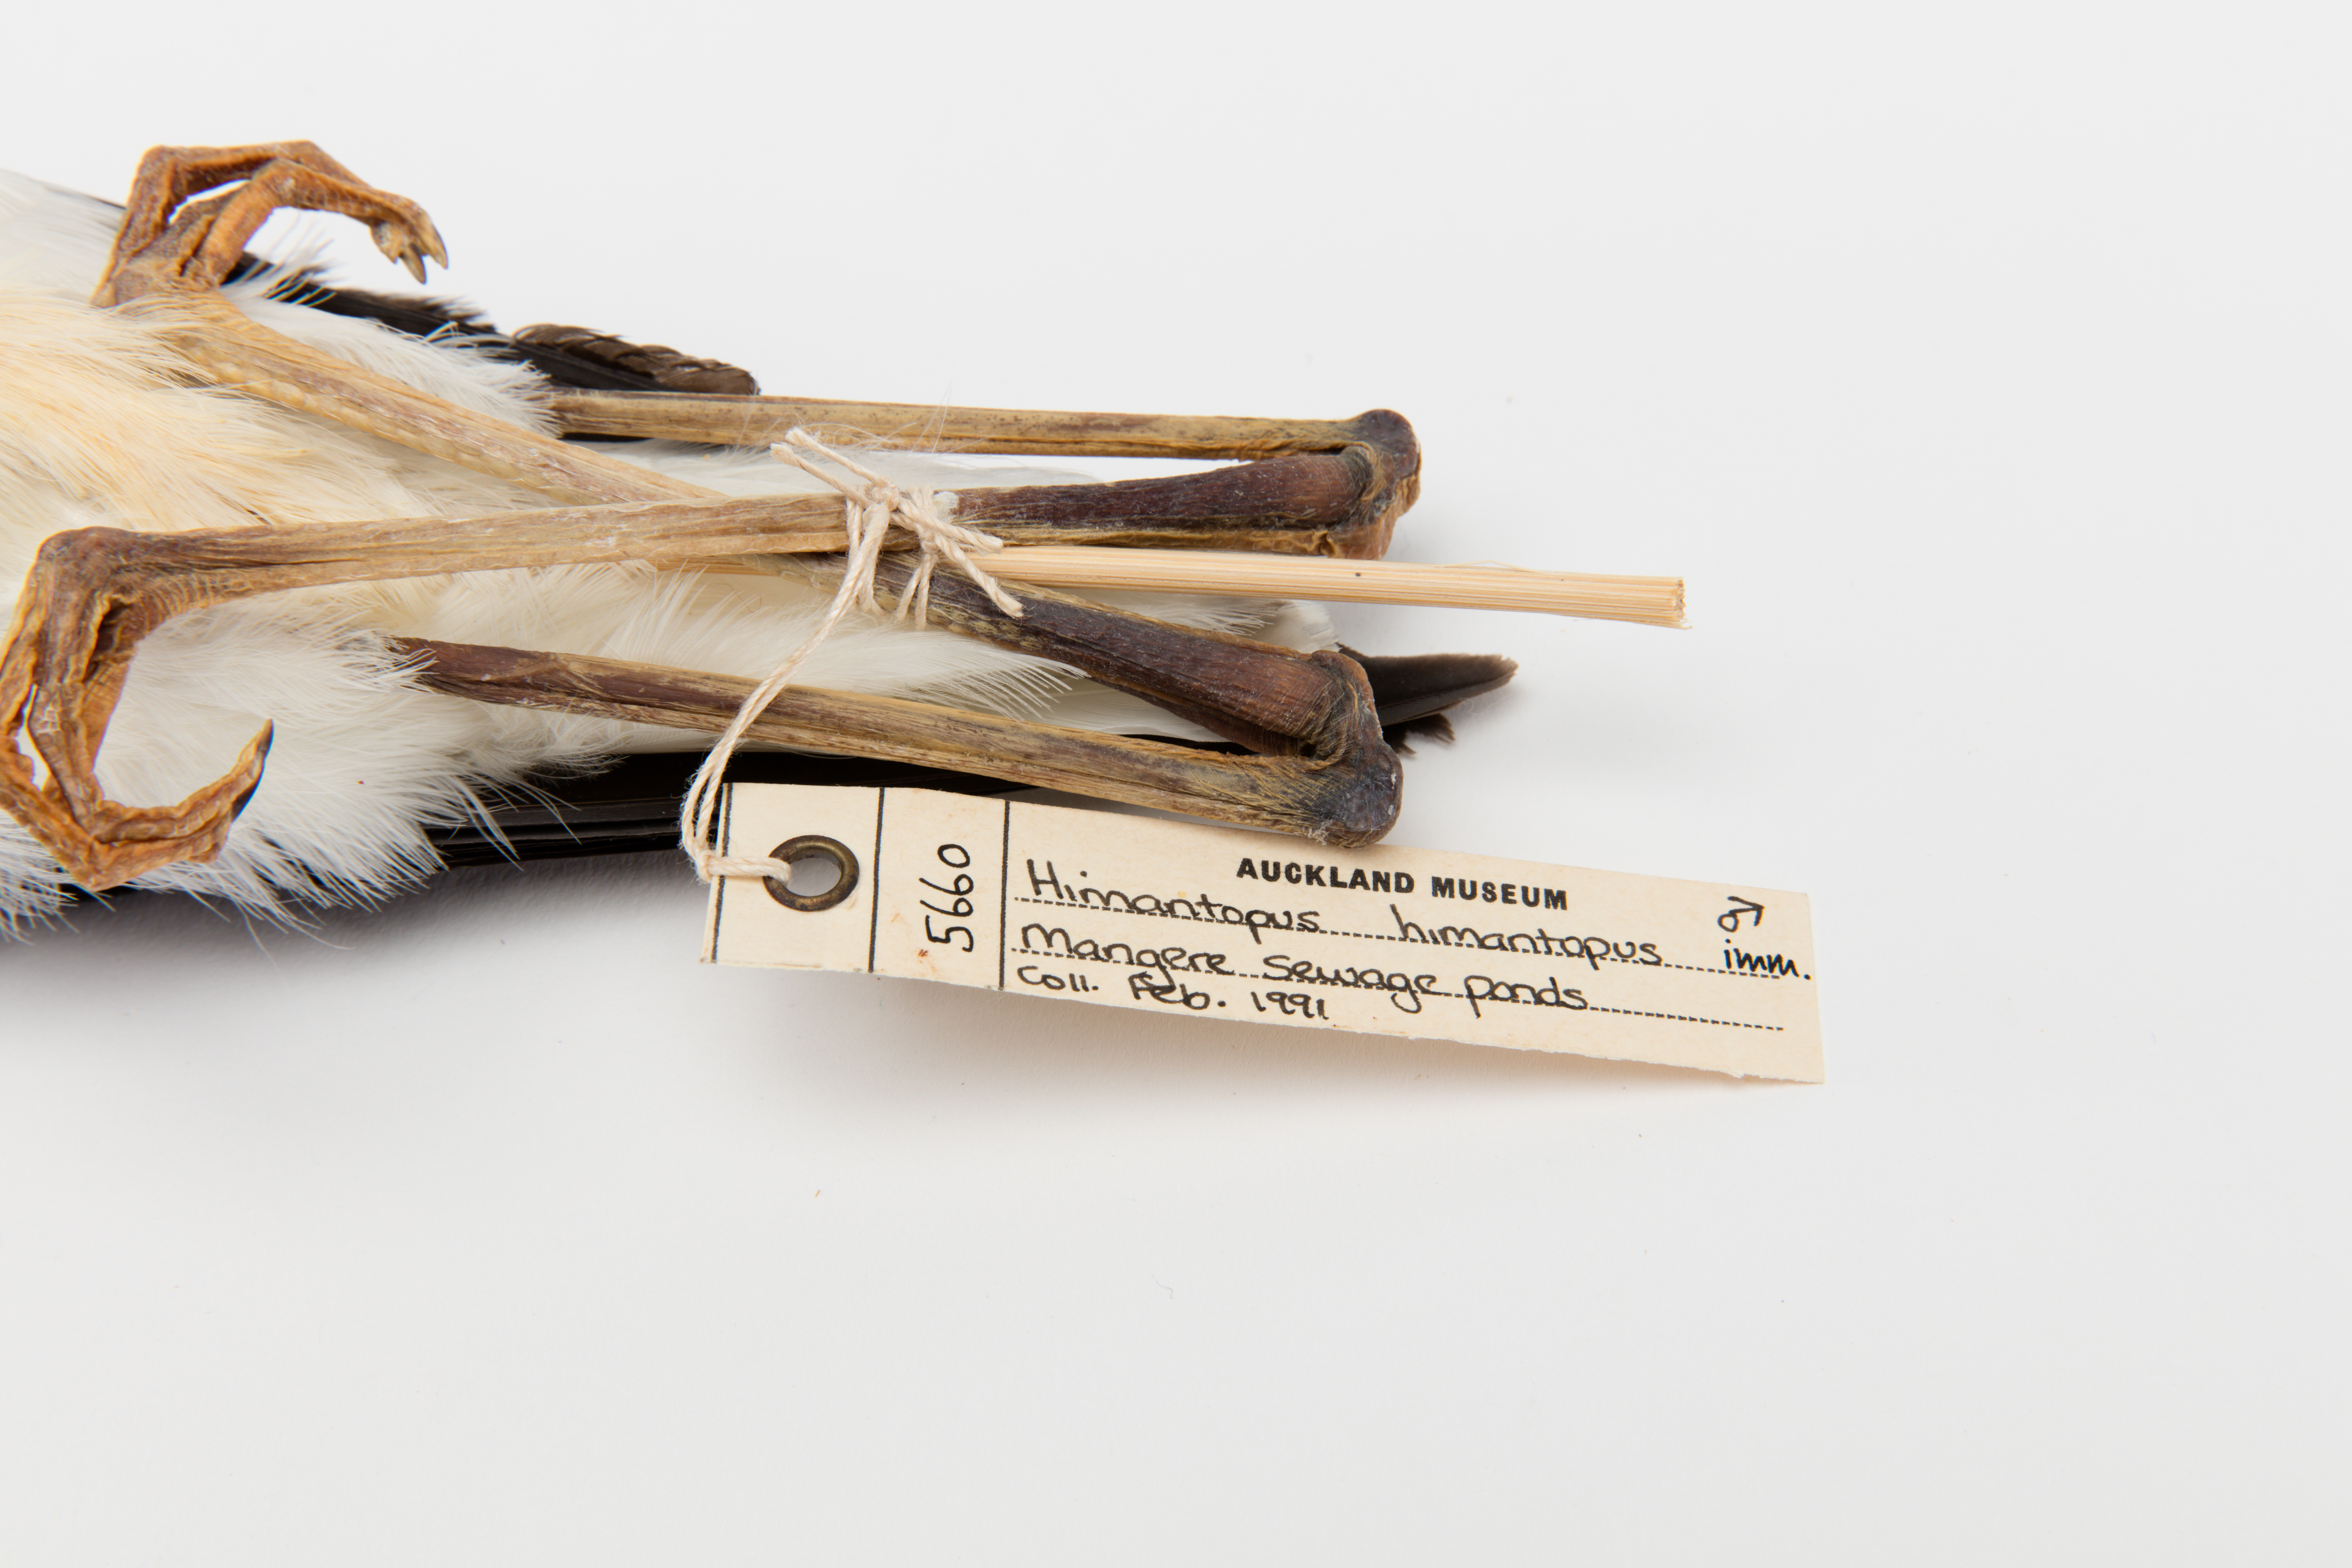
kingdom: Animalia
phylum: Chordata
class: Aves
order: Charadriiformes
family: Recurvirostridae
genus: Himantopus
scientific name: Himantopus himantopus
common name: Black-winged stilt
